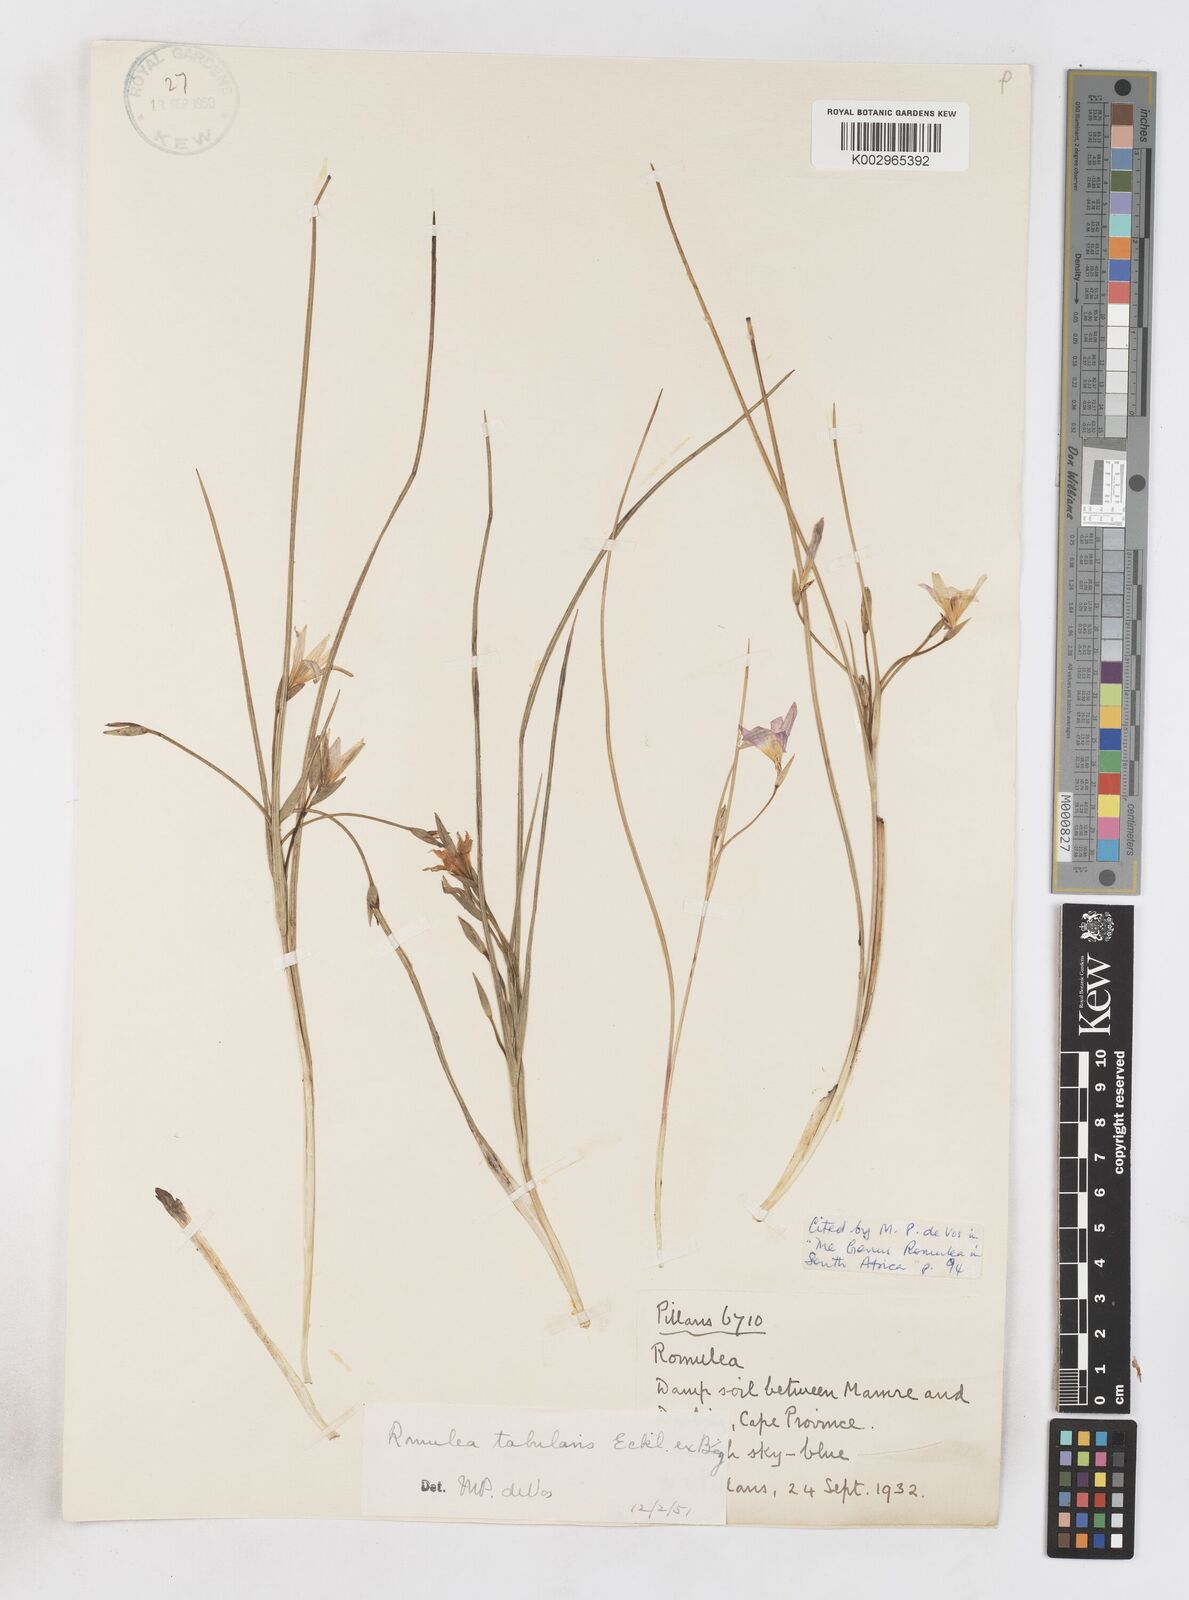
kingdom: Plantae
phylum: Tracheophyta
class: Liliopsida
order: Asparagales
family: Iridaceae
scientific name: Iridaceae
